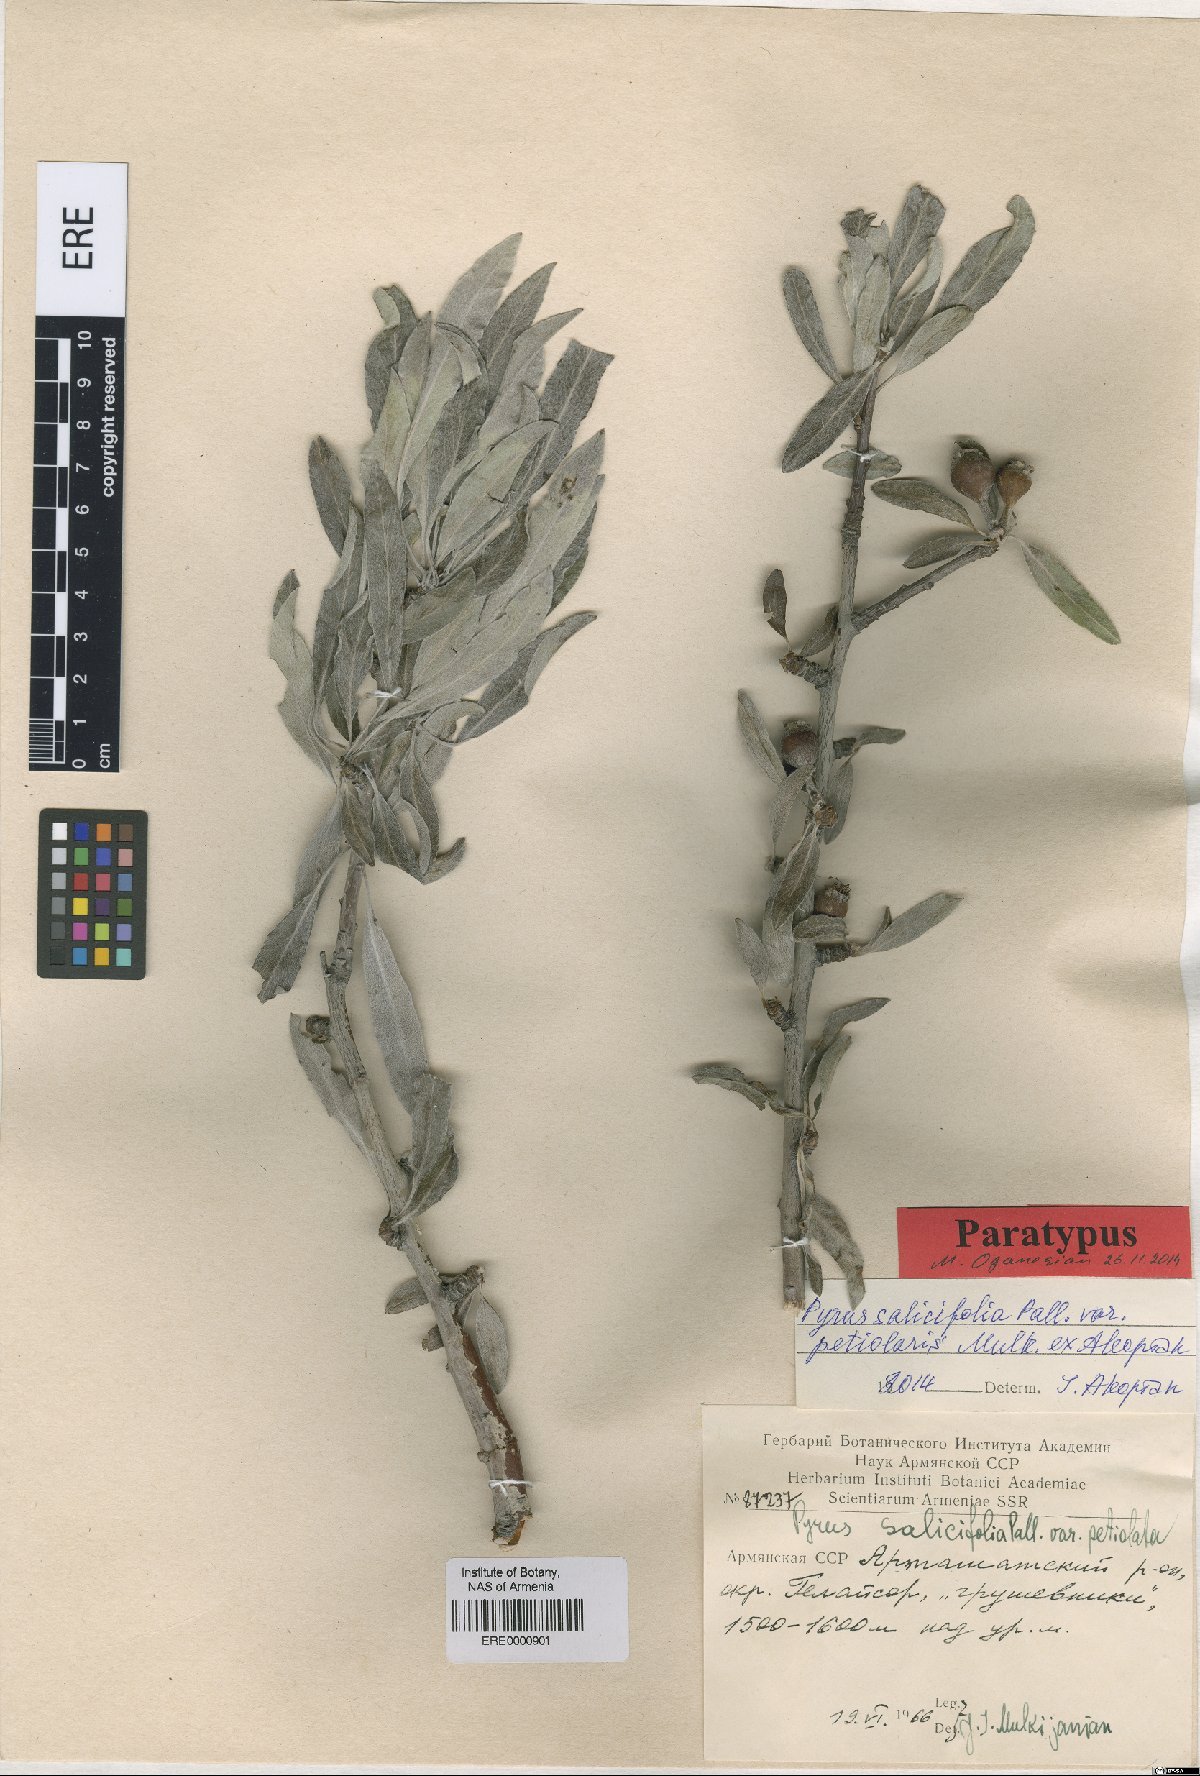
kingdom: Plantae
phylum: Tracheophyta
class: Magnoliopsida
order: Rosales
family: Rosaceae
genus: Pyrus
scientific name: Pyrus salicifolia
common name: Willow-leaved pear
